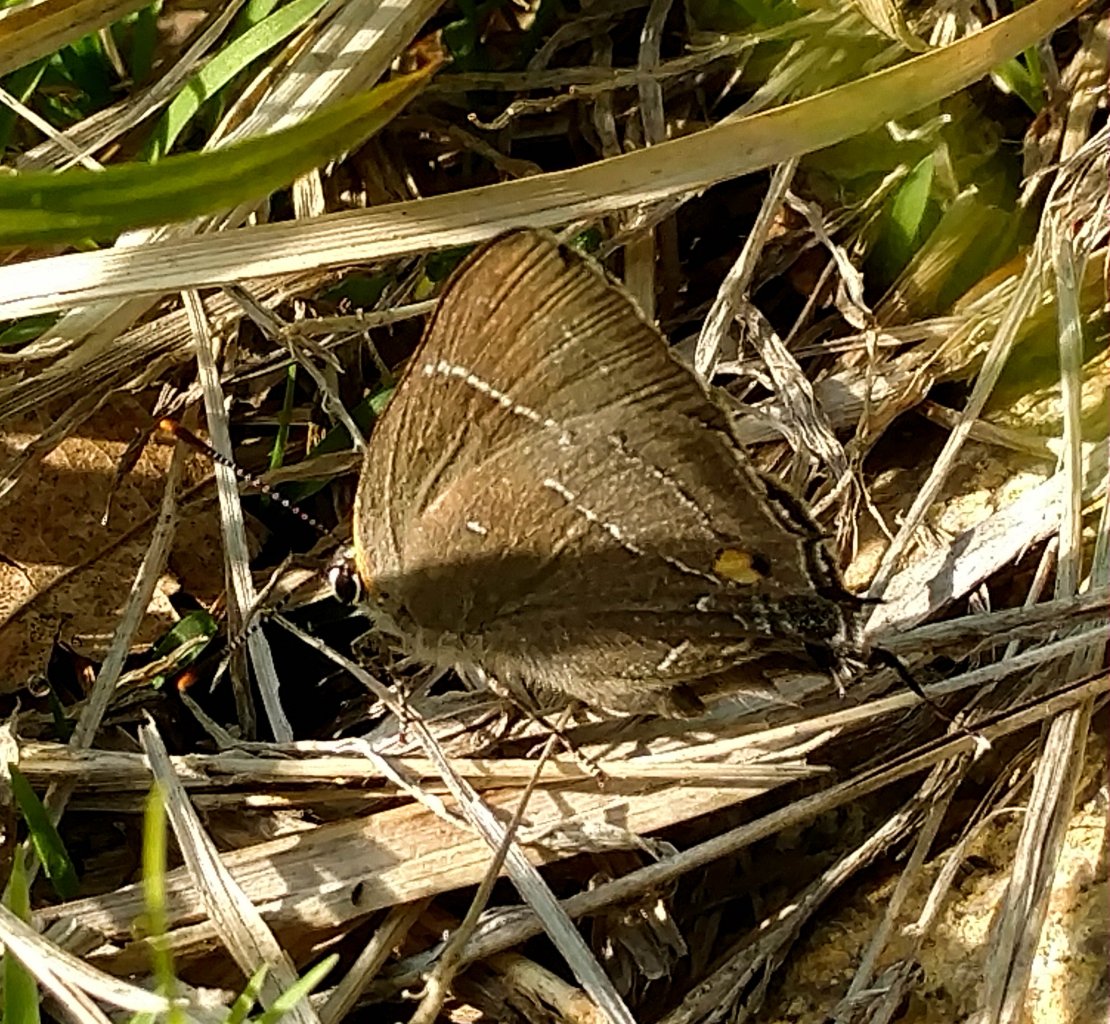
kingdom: Animalia
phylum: Arthropoda
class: Insecta
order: Lepidoptera
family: Lycaenidae
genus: Parrhasius
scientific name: Parrhasius m-album
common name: White-m Hairstreak
